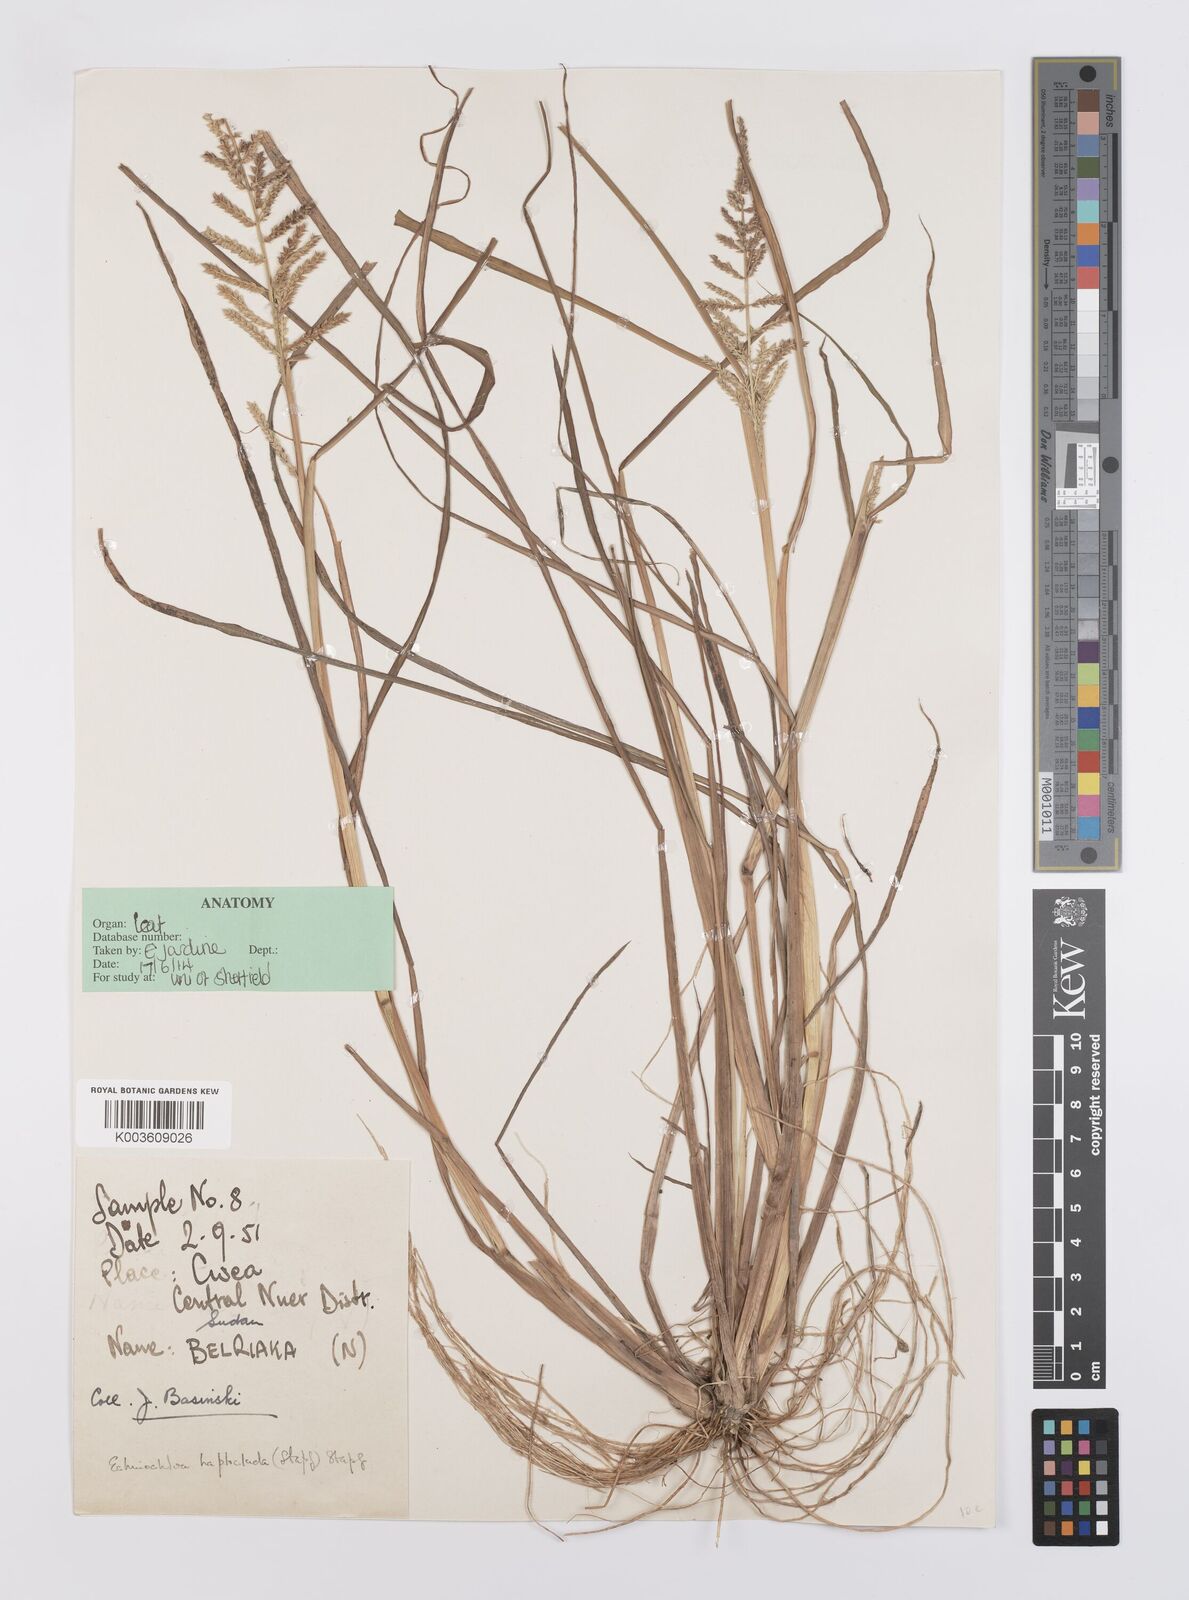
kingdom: Plantae
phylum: Tracheophyta
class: Liliopsida
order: Poales
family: Poaceae
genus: Echinochloa
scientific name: Echinochloa haploclada
